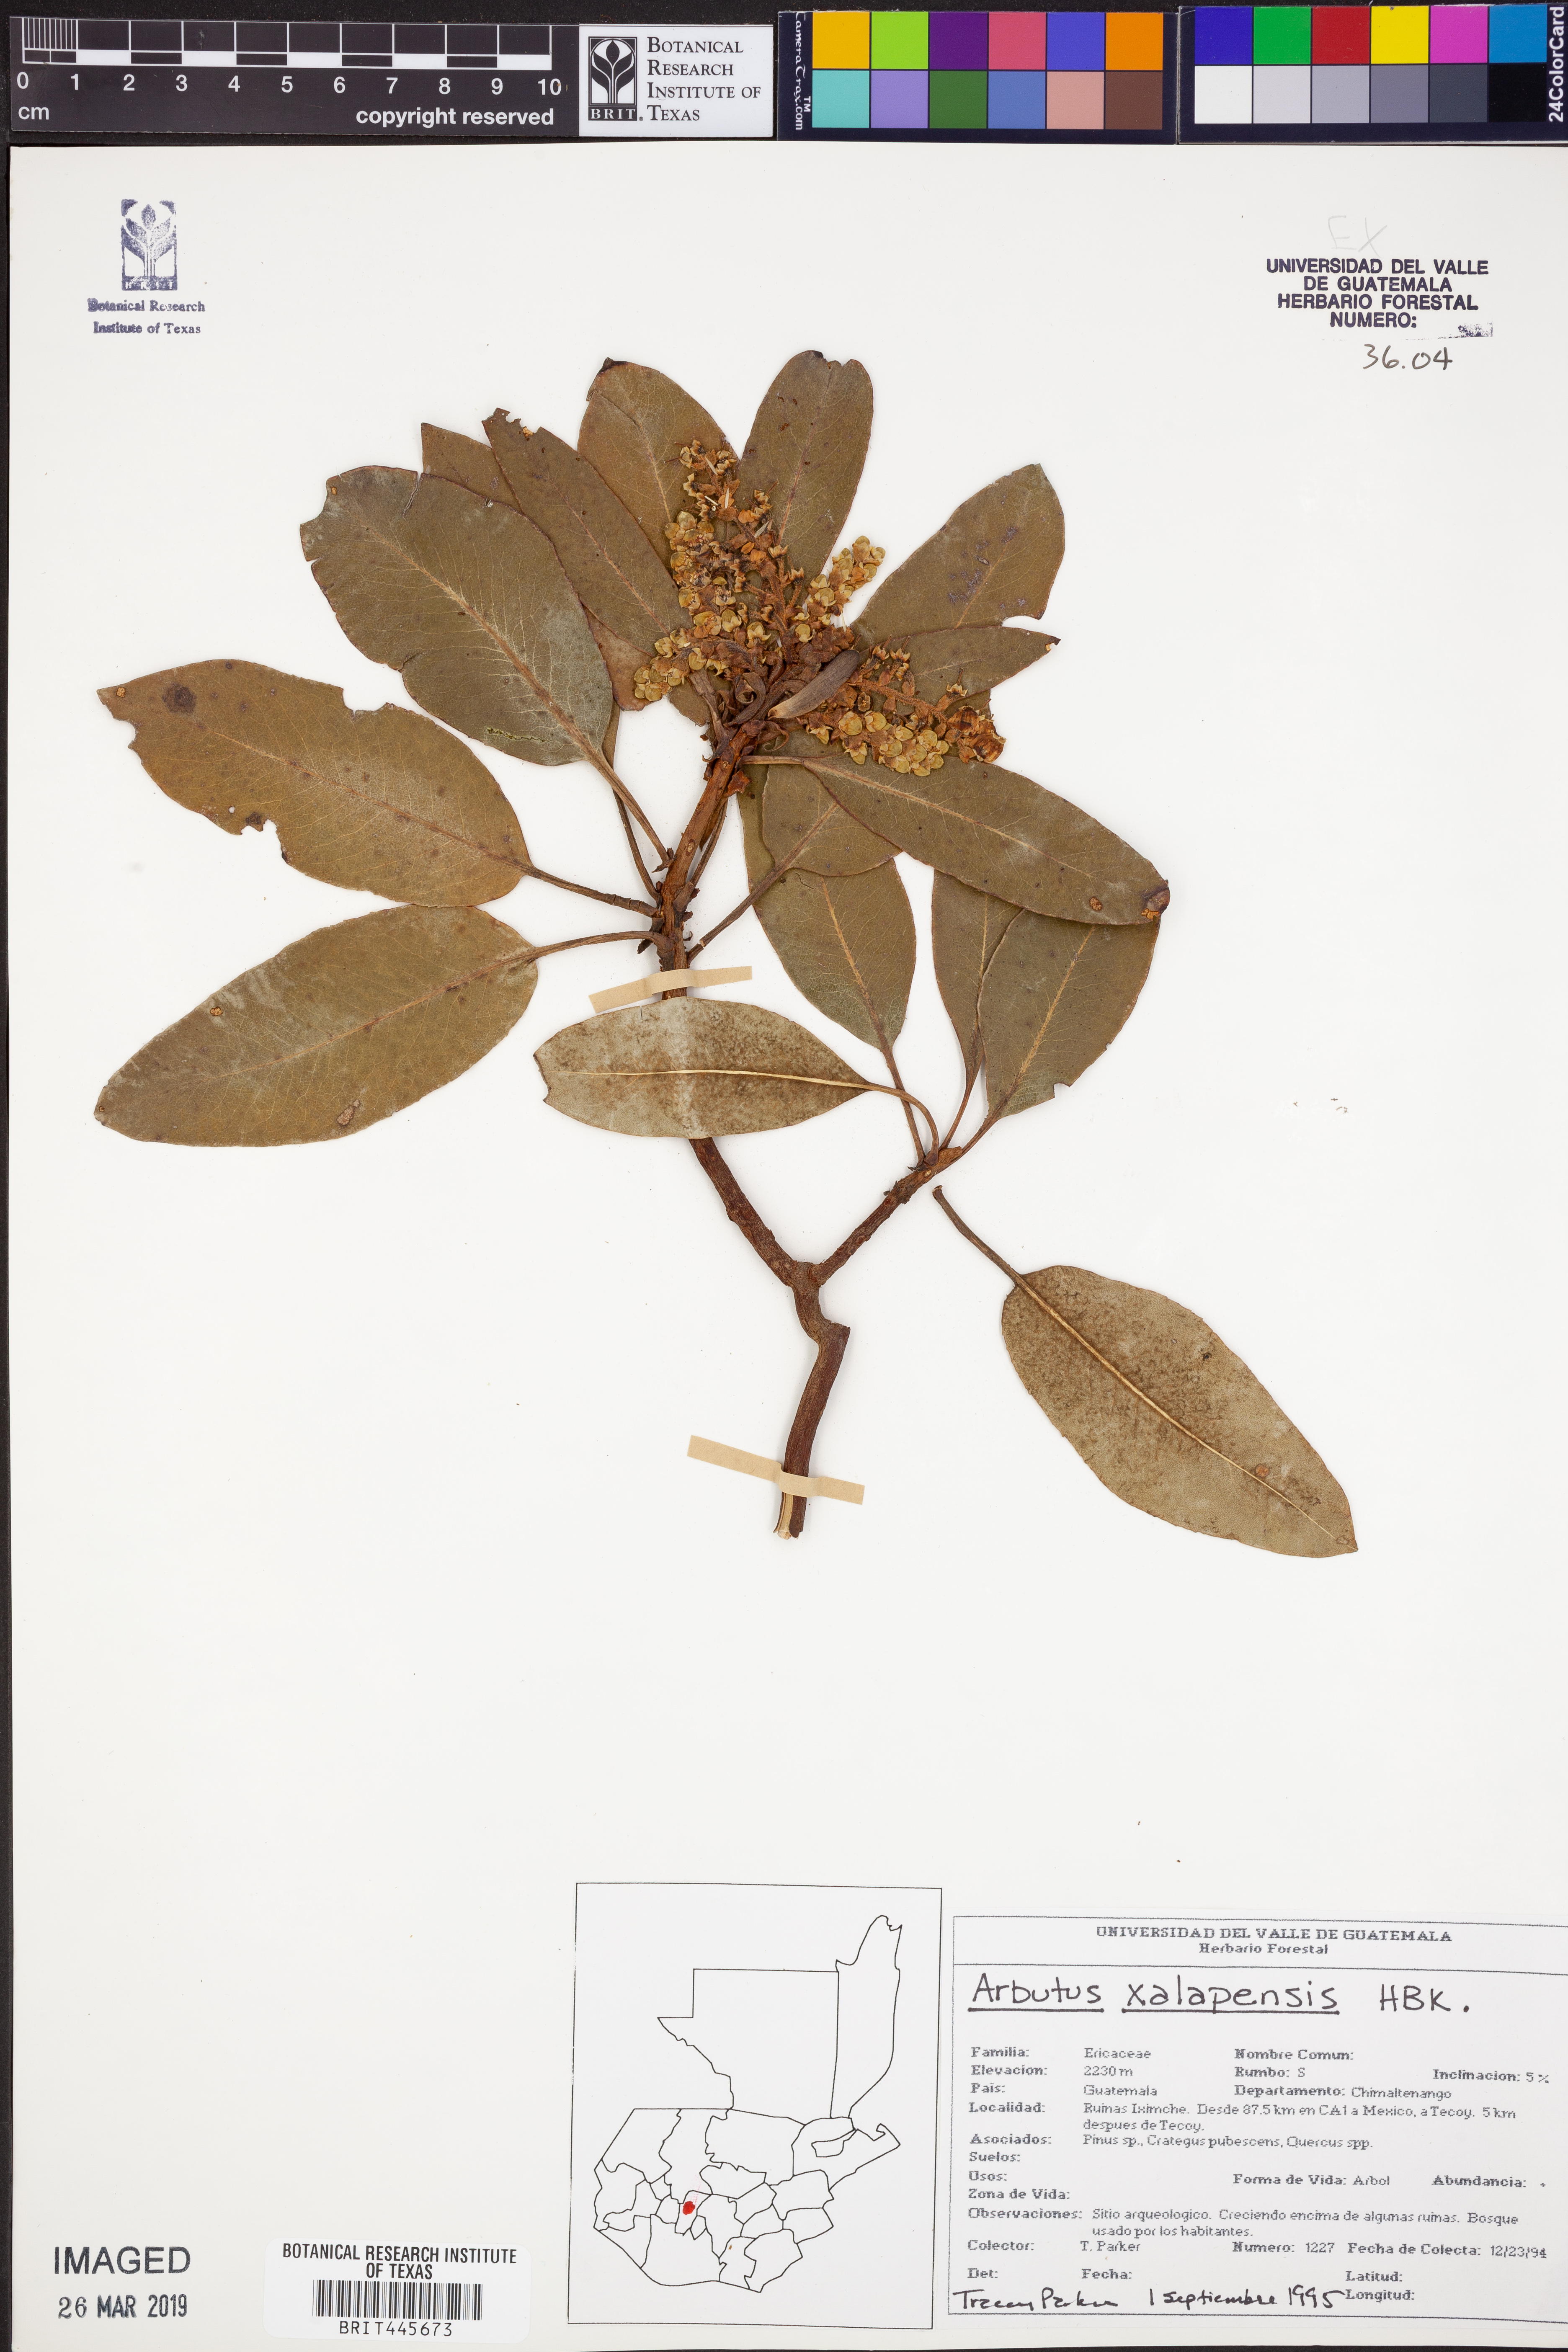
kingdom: Plantae
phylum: Tracheophyta
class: Magnoliopsida
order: Ericales
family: Ericaceae
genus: Arbutus
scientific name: Arbutus xalapensis
